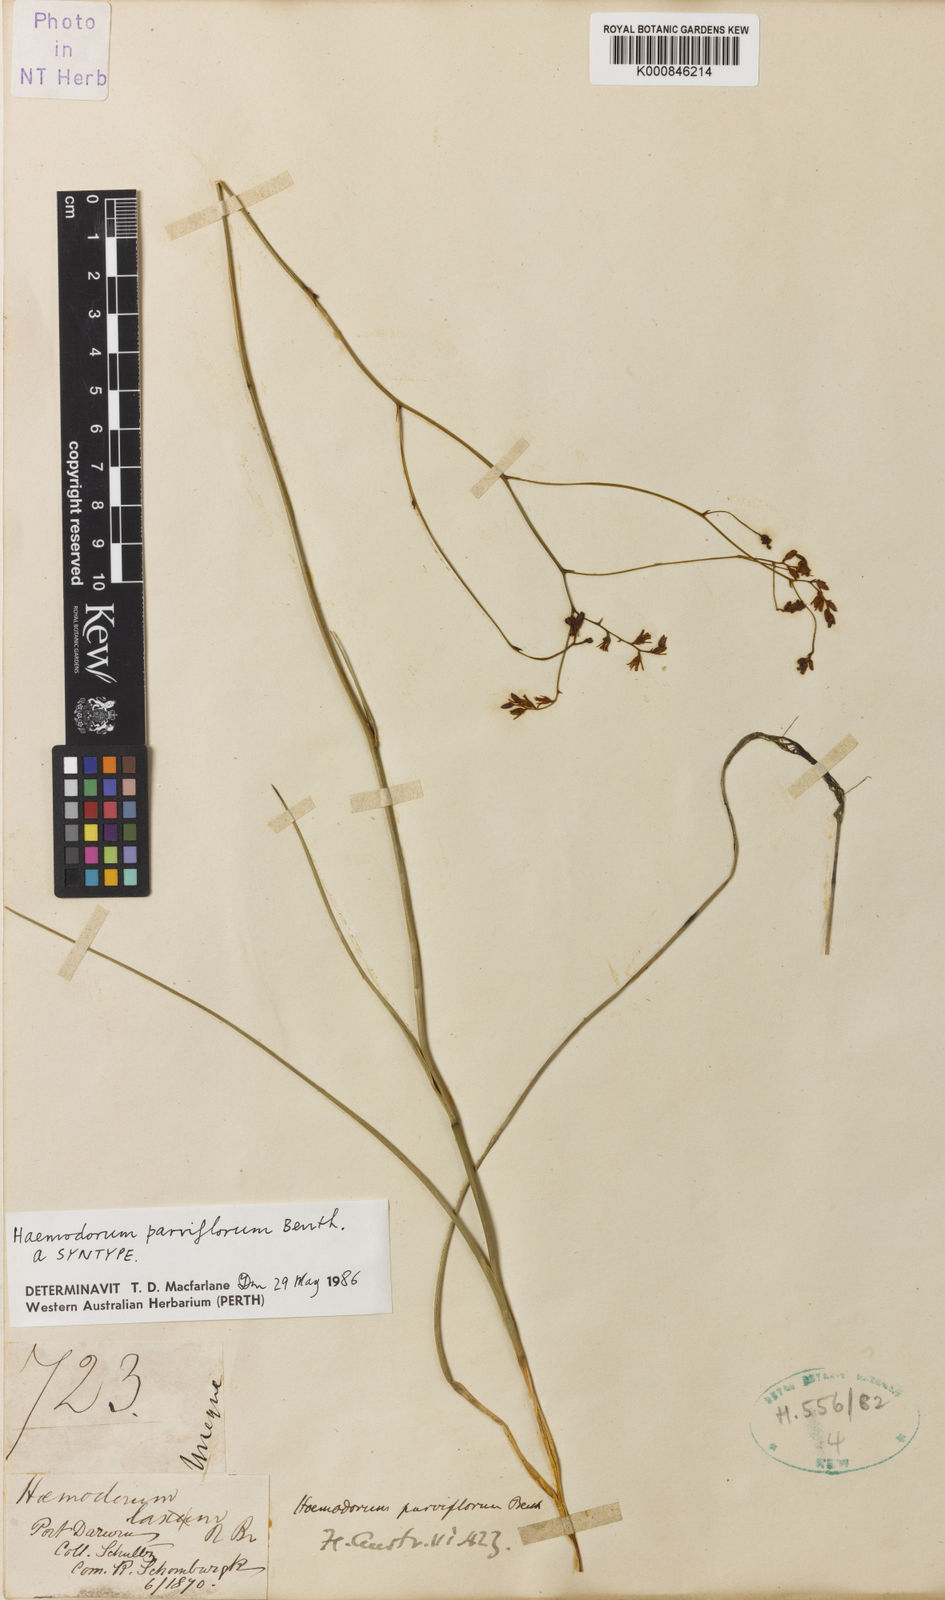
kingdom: Plantae
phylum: Tracheophyta
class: Liliopsida
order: Commelinales
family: Haemodoraceae
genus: Haemodorum
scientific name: Haemodorum parviflorum
